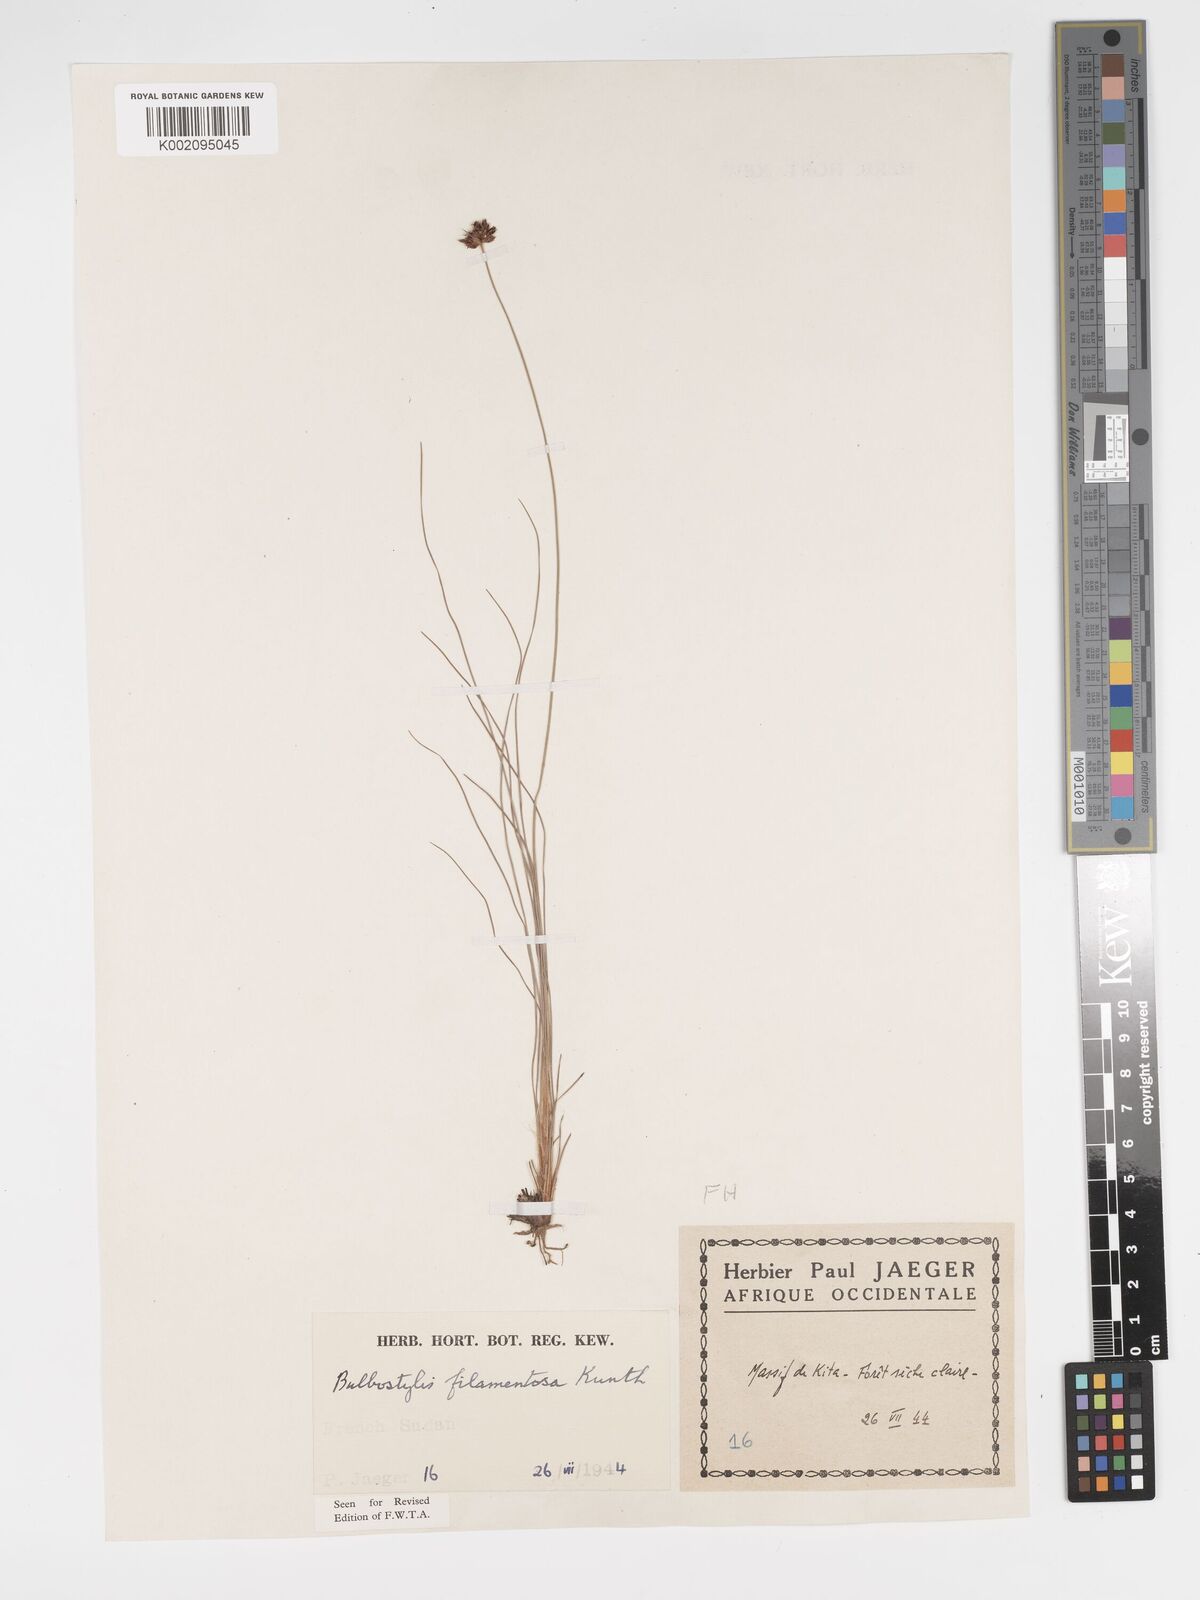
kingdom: Plantae
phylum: Tracheophyta
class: Liliopsida
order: Poales
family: Cyperaceae
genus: Bulbostylis
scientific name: Bulbostylis scabricaulis
